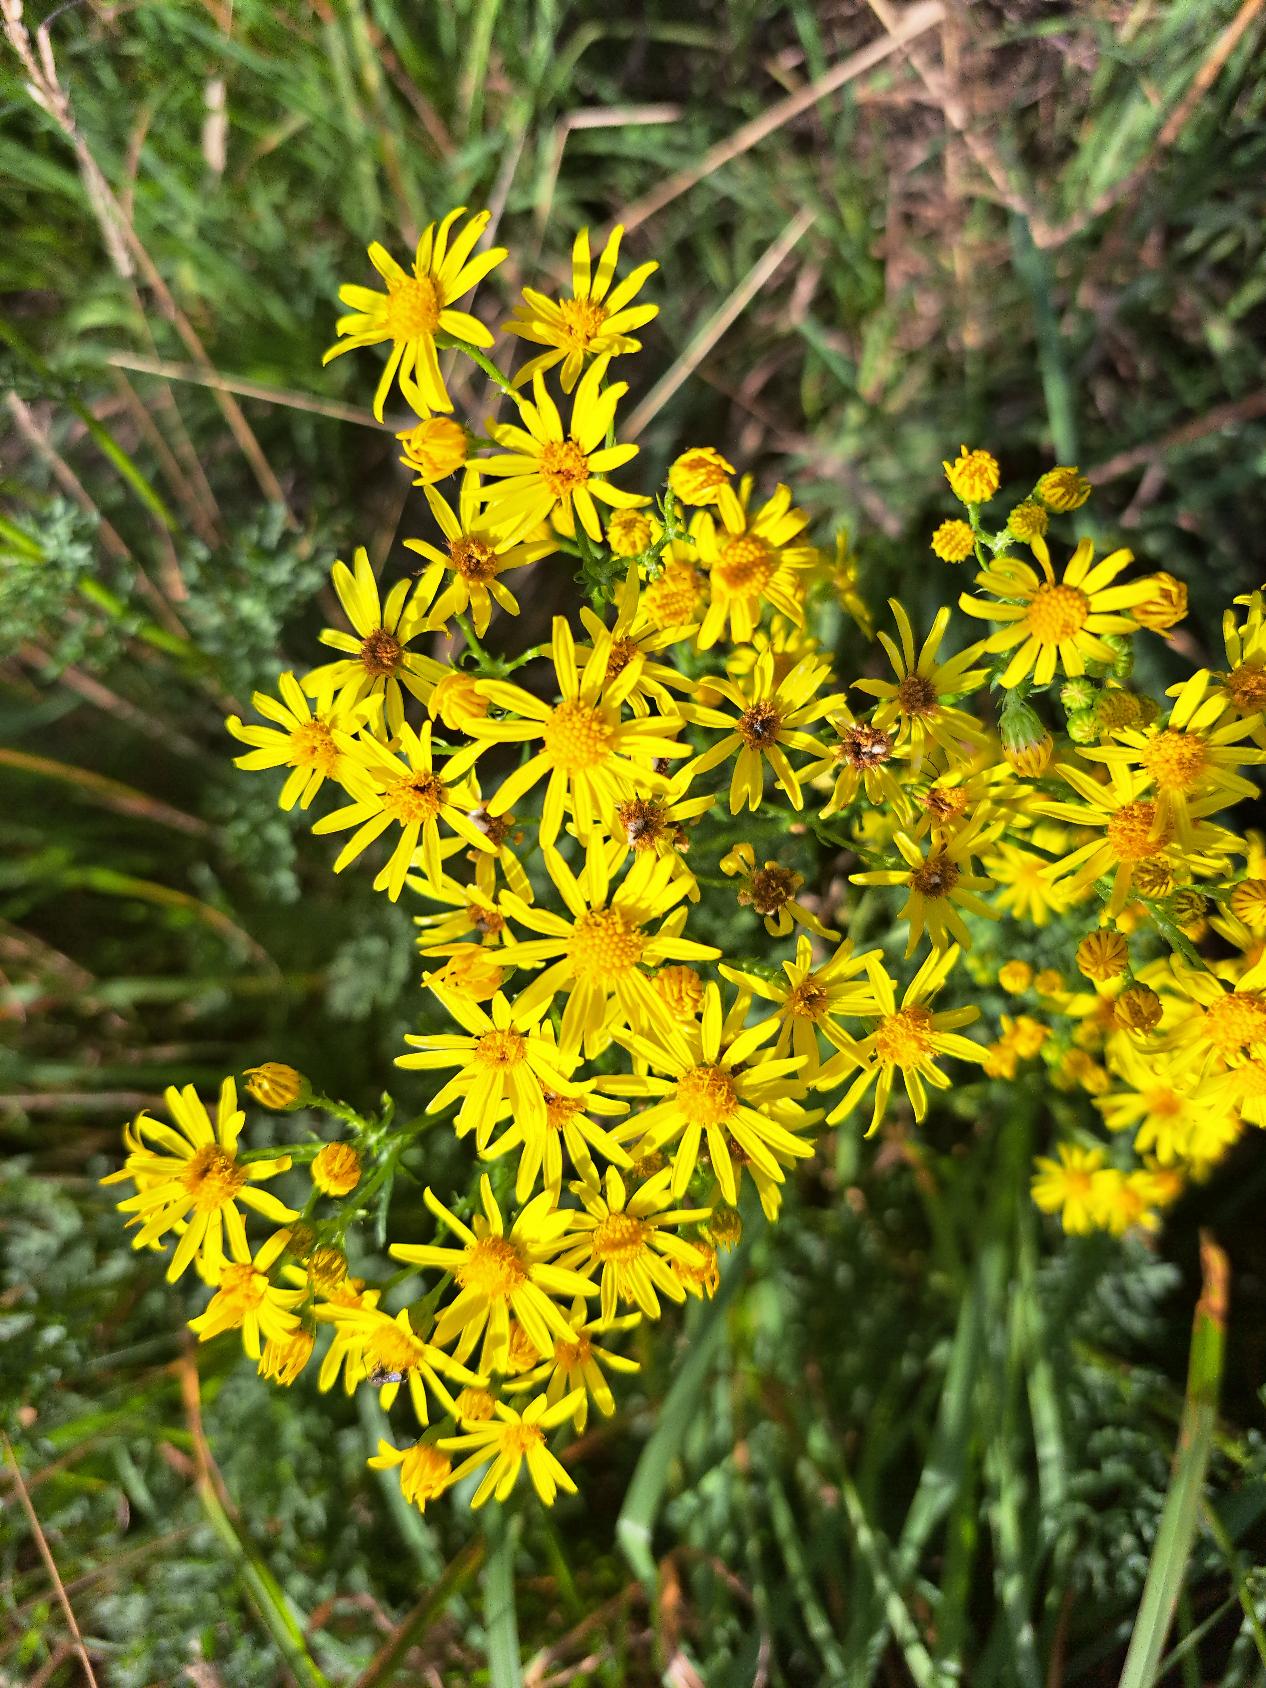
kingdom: Plantae
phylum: Tracheophyta
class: Magnoliopsida
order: Asterales
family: Asteraceae
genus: Jacobaea
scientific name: Jacobaea vulgaris
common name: Eng-brandbæger
